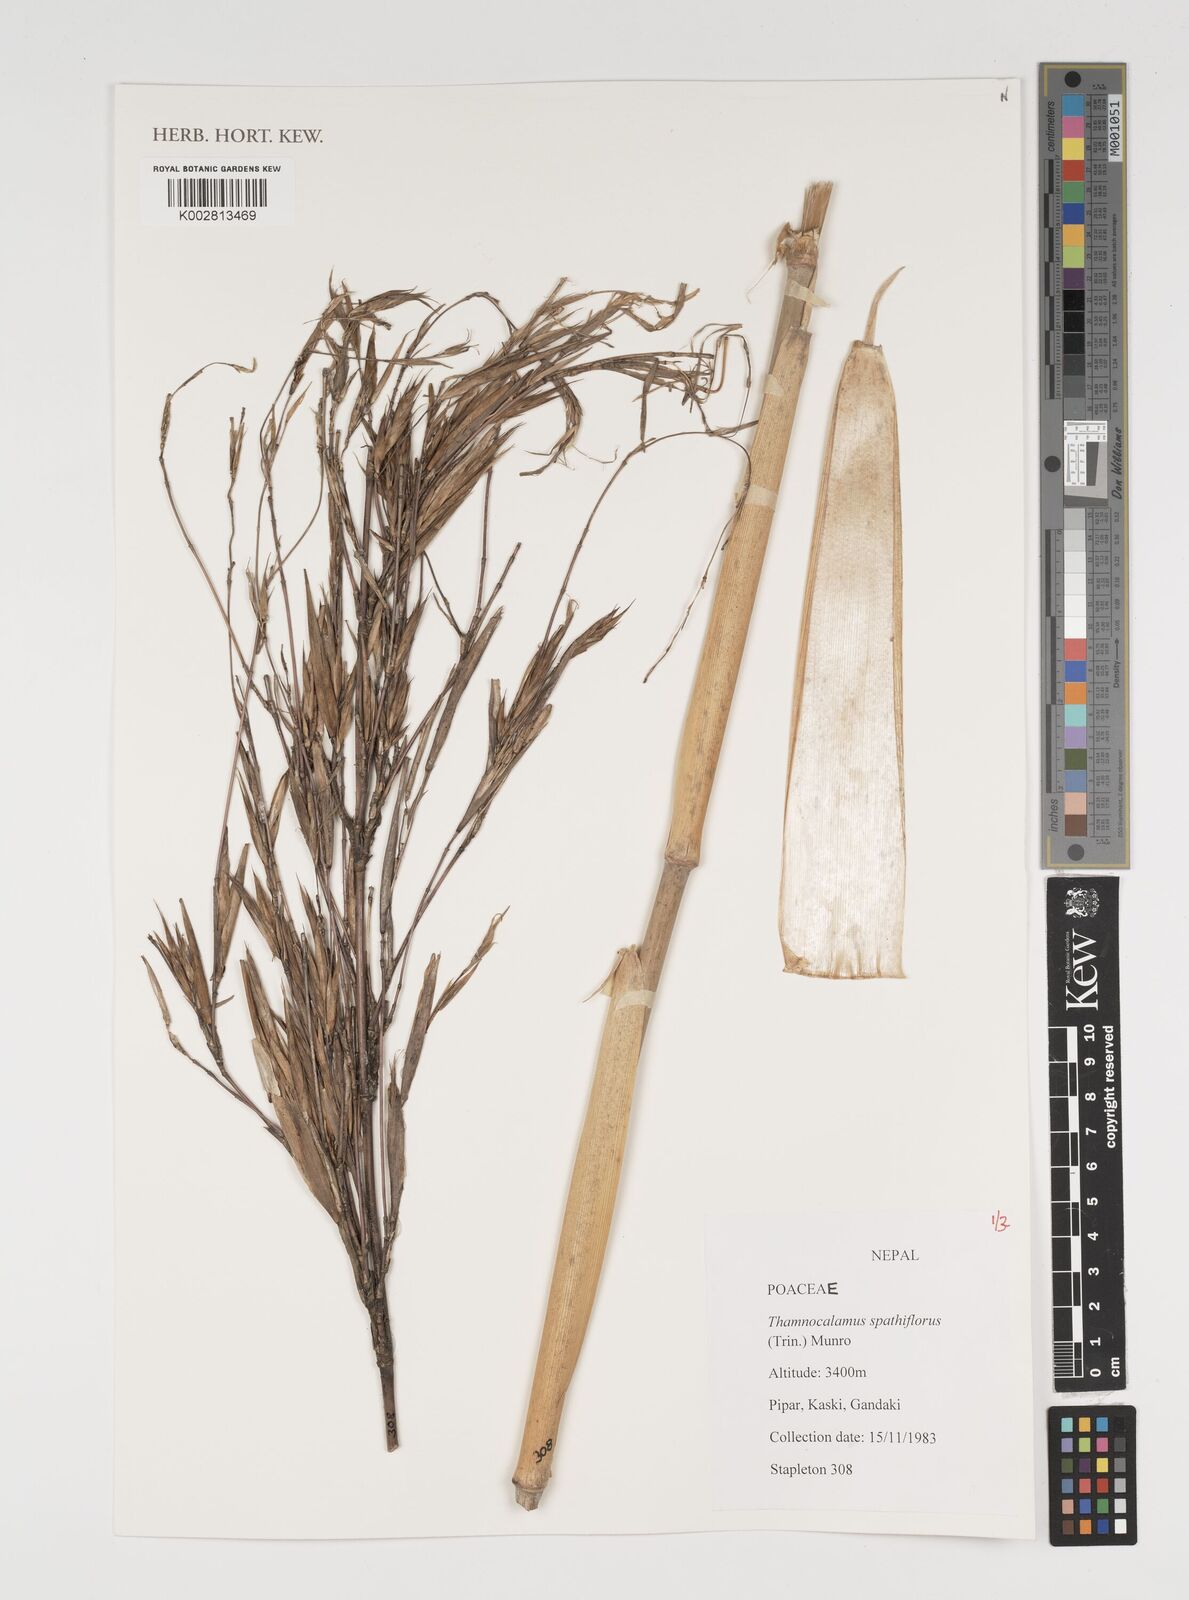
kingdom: Plantae
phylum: Tracheophyta
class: Liliopsida
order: Poales
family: Poaceae
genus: Thamnocalamus
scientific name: Thamnocalamus spathiflorus
